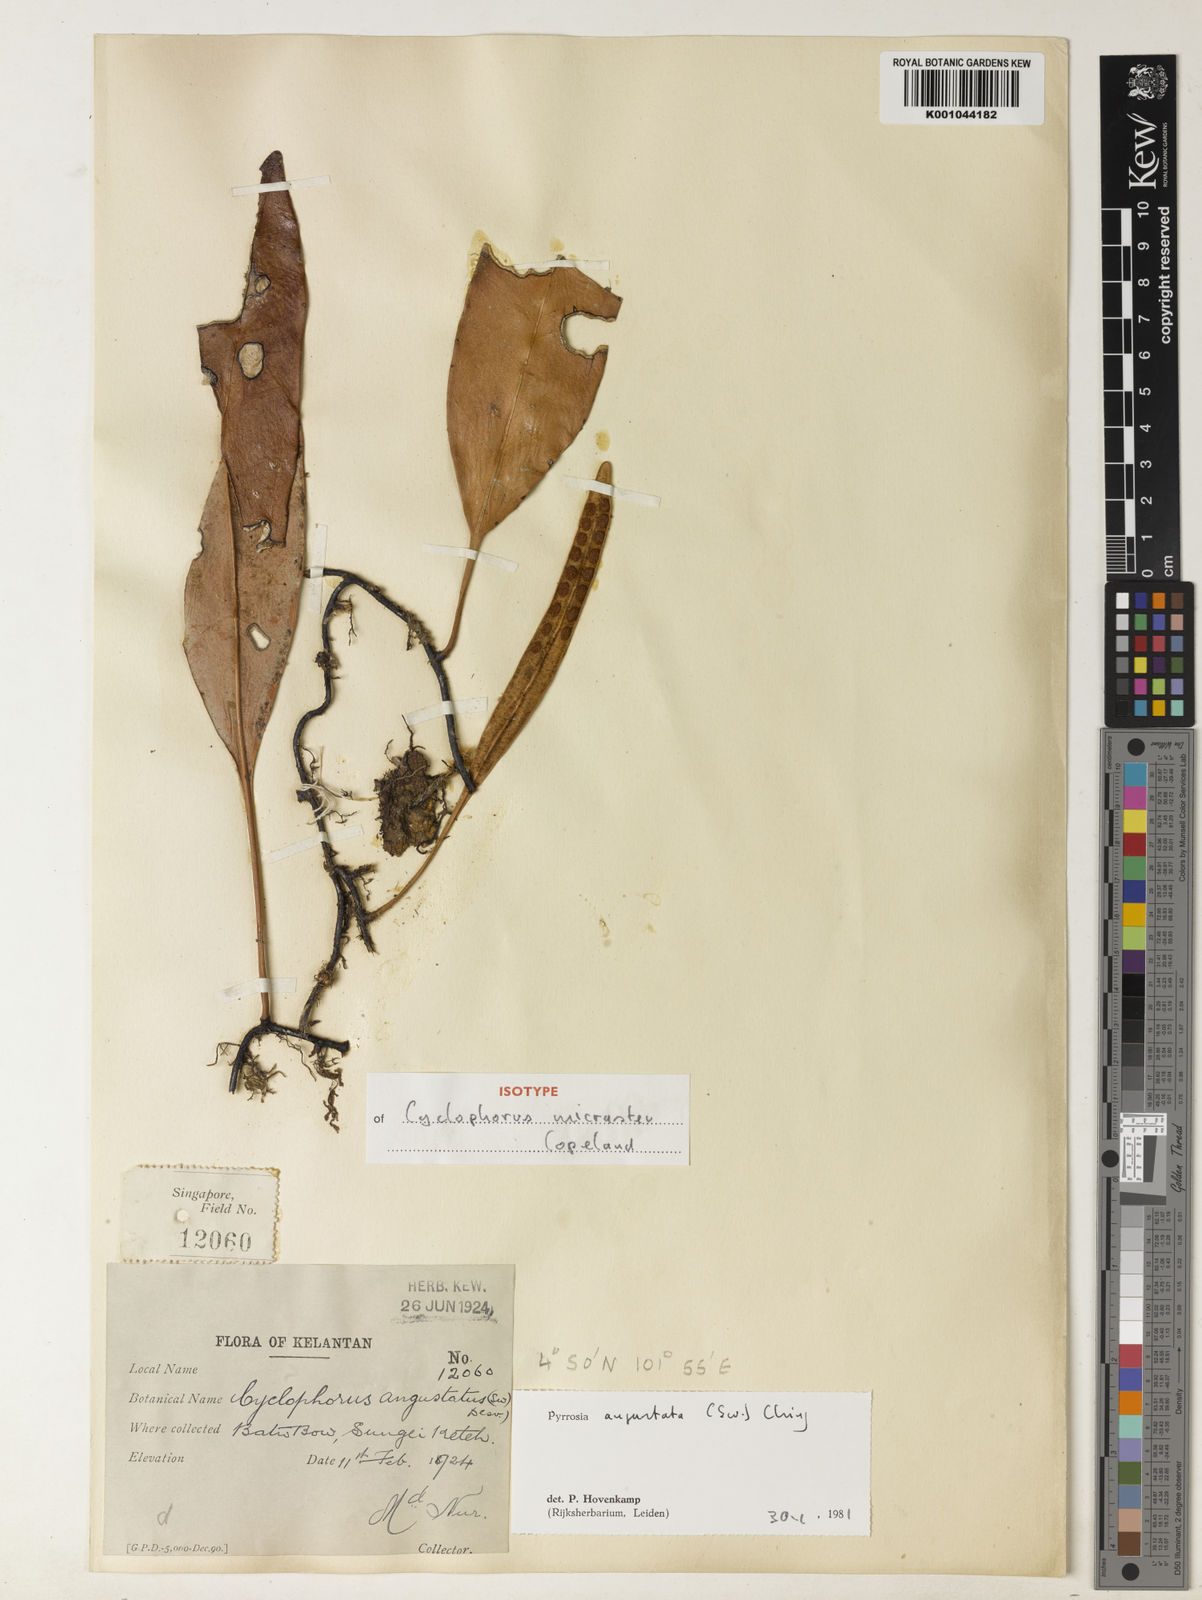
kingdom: Plantae
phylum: Tracheophyta
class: Polypodiopsida
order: Polypodiales
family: Polypodiaceae
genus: Pyrrosia
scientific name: Pyrrosia angustata
